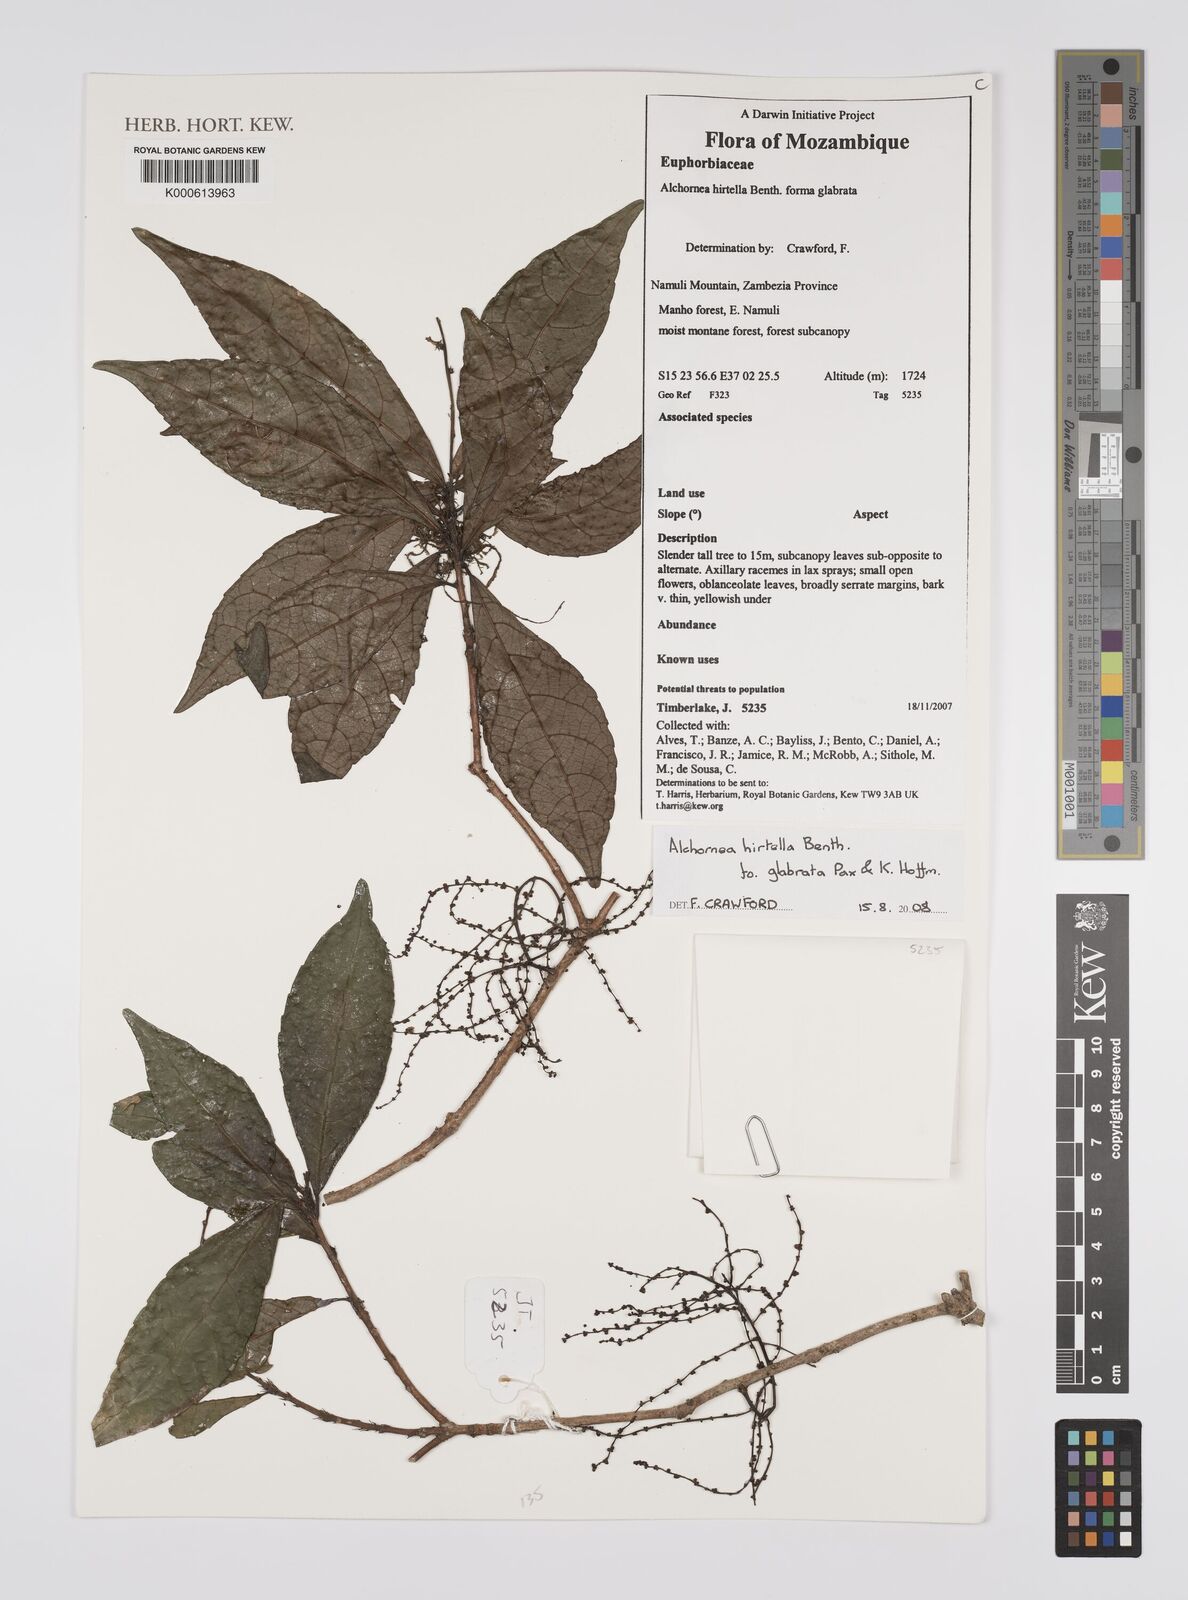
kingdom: Plantae
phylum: Tracheophyta
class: Magnoliopsida
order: Malpighiales
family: Euphorbiaceae
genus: Alchornea
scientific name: Alchornea hirtella
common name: Forest bead-string
